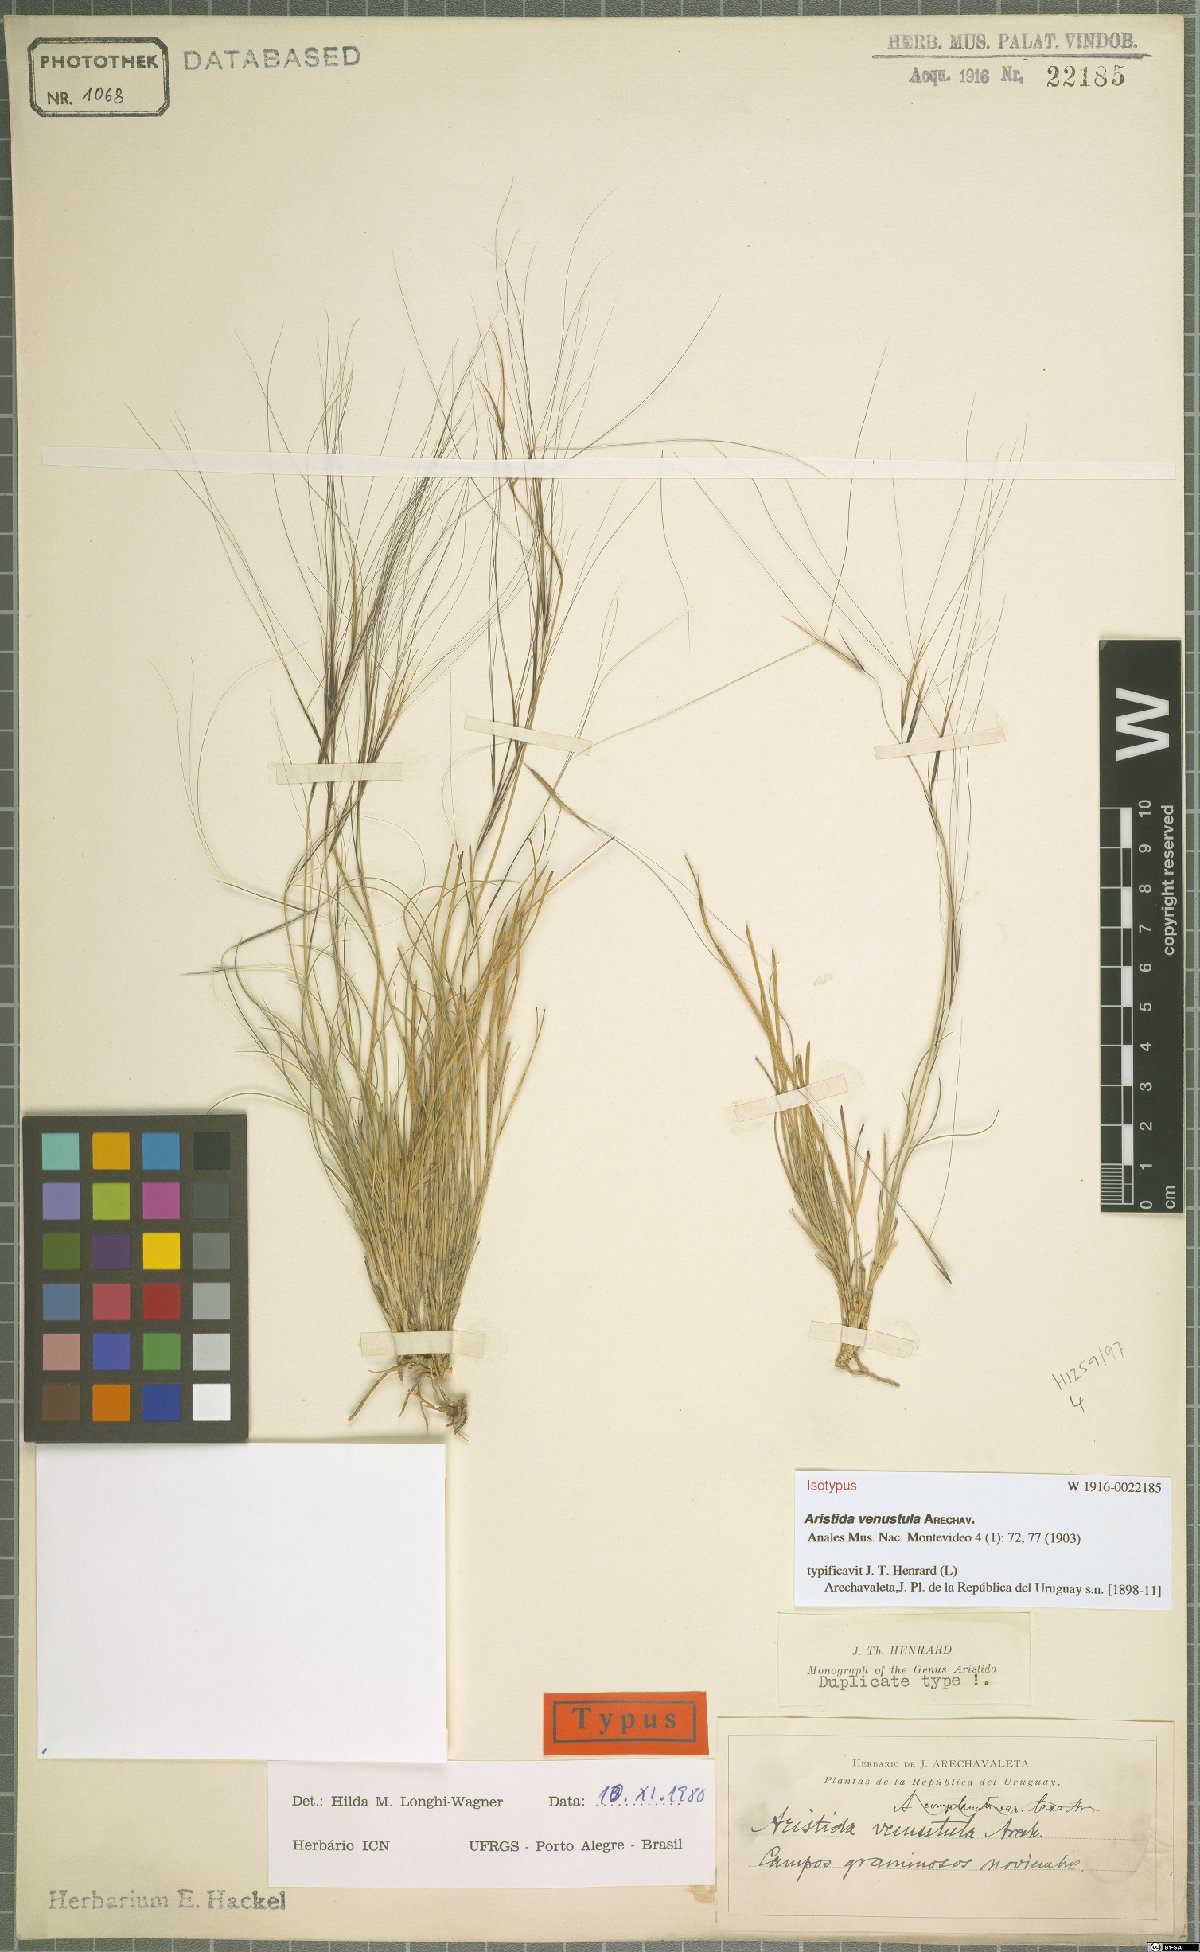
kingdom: Plantae
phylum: Tracheophyta
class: Liliopsida
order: Poales
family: Poaceae
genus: Aristida
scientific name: Aristida venustula
